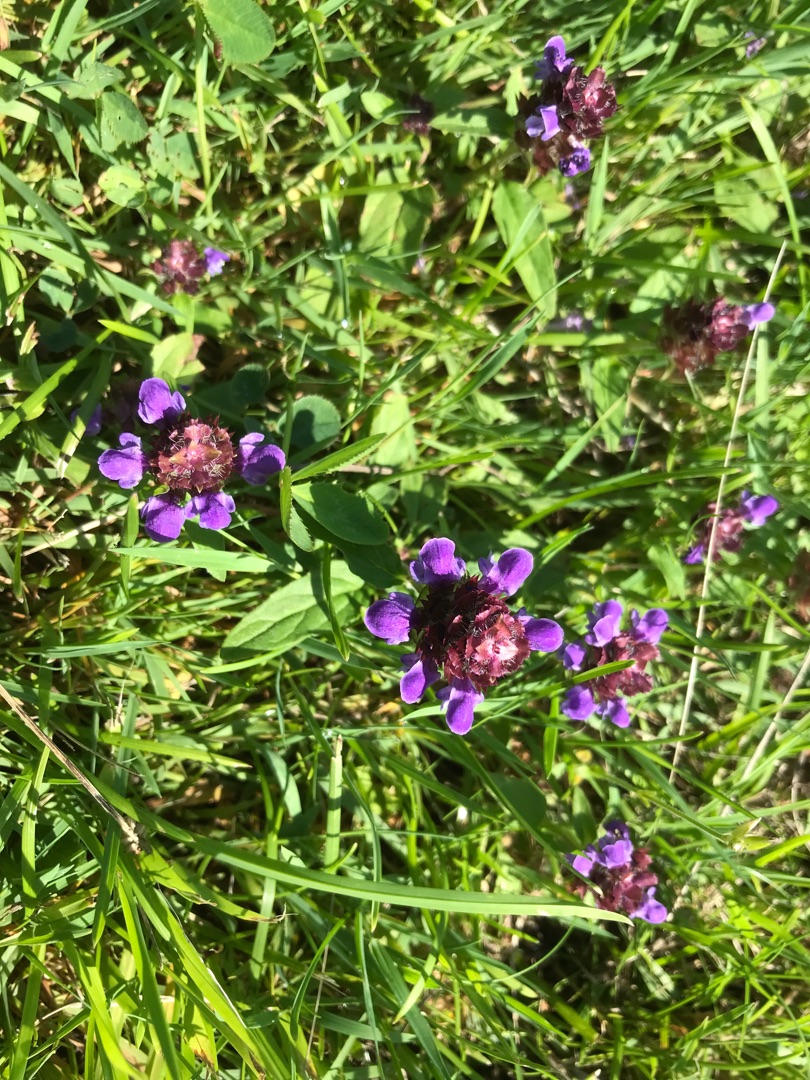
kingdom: Plantae
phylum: Tracheophyta
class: Magnoliopsida
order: Lamiales
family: Lamiaceae
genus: Prunella
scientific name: Prunella vulgaris
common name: Almindelig brunelle
